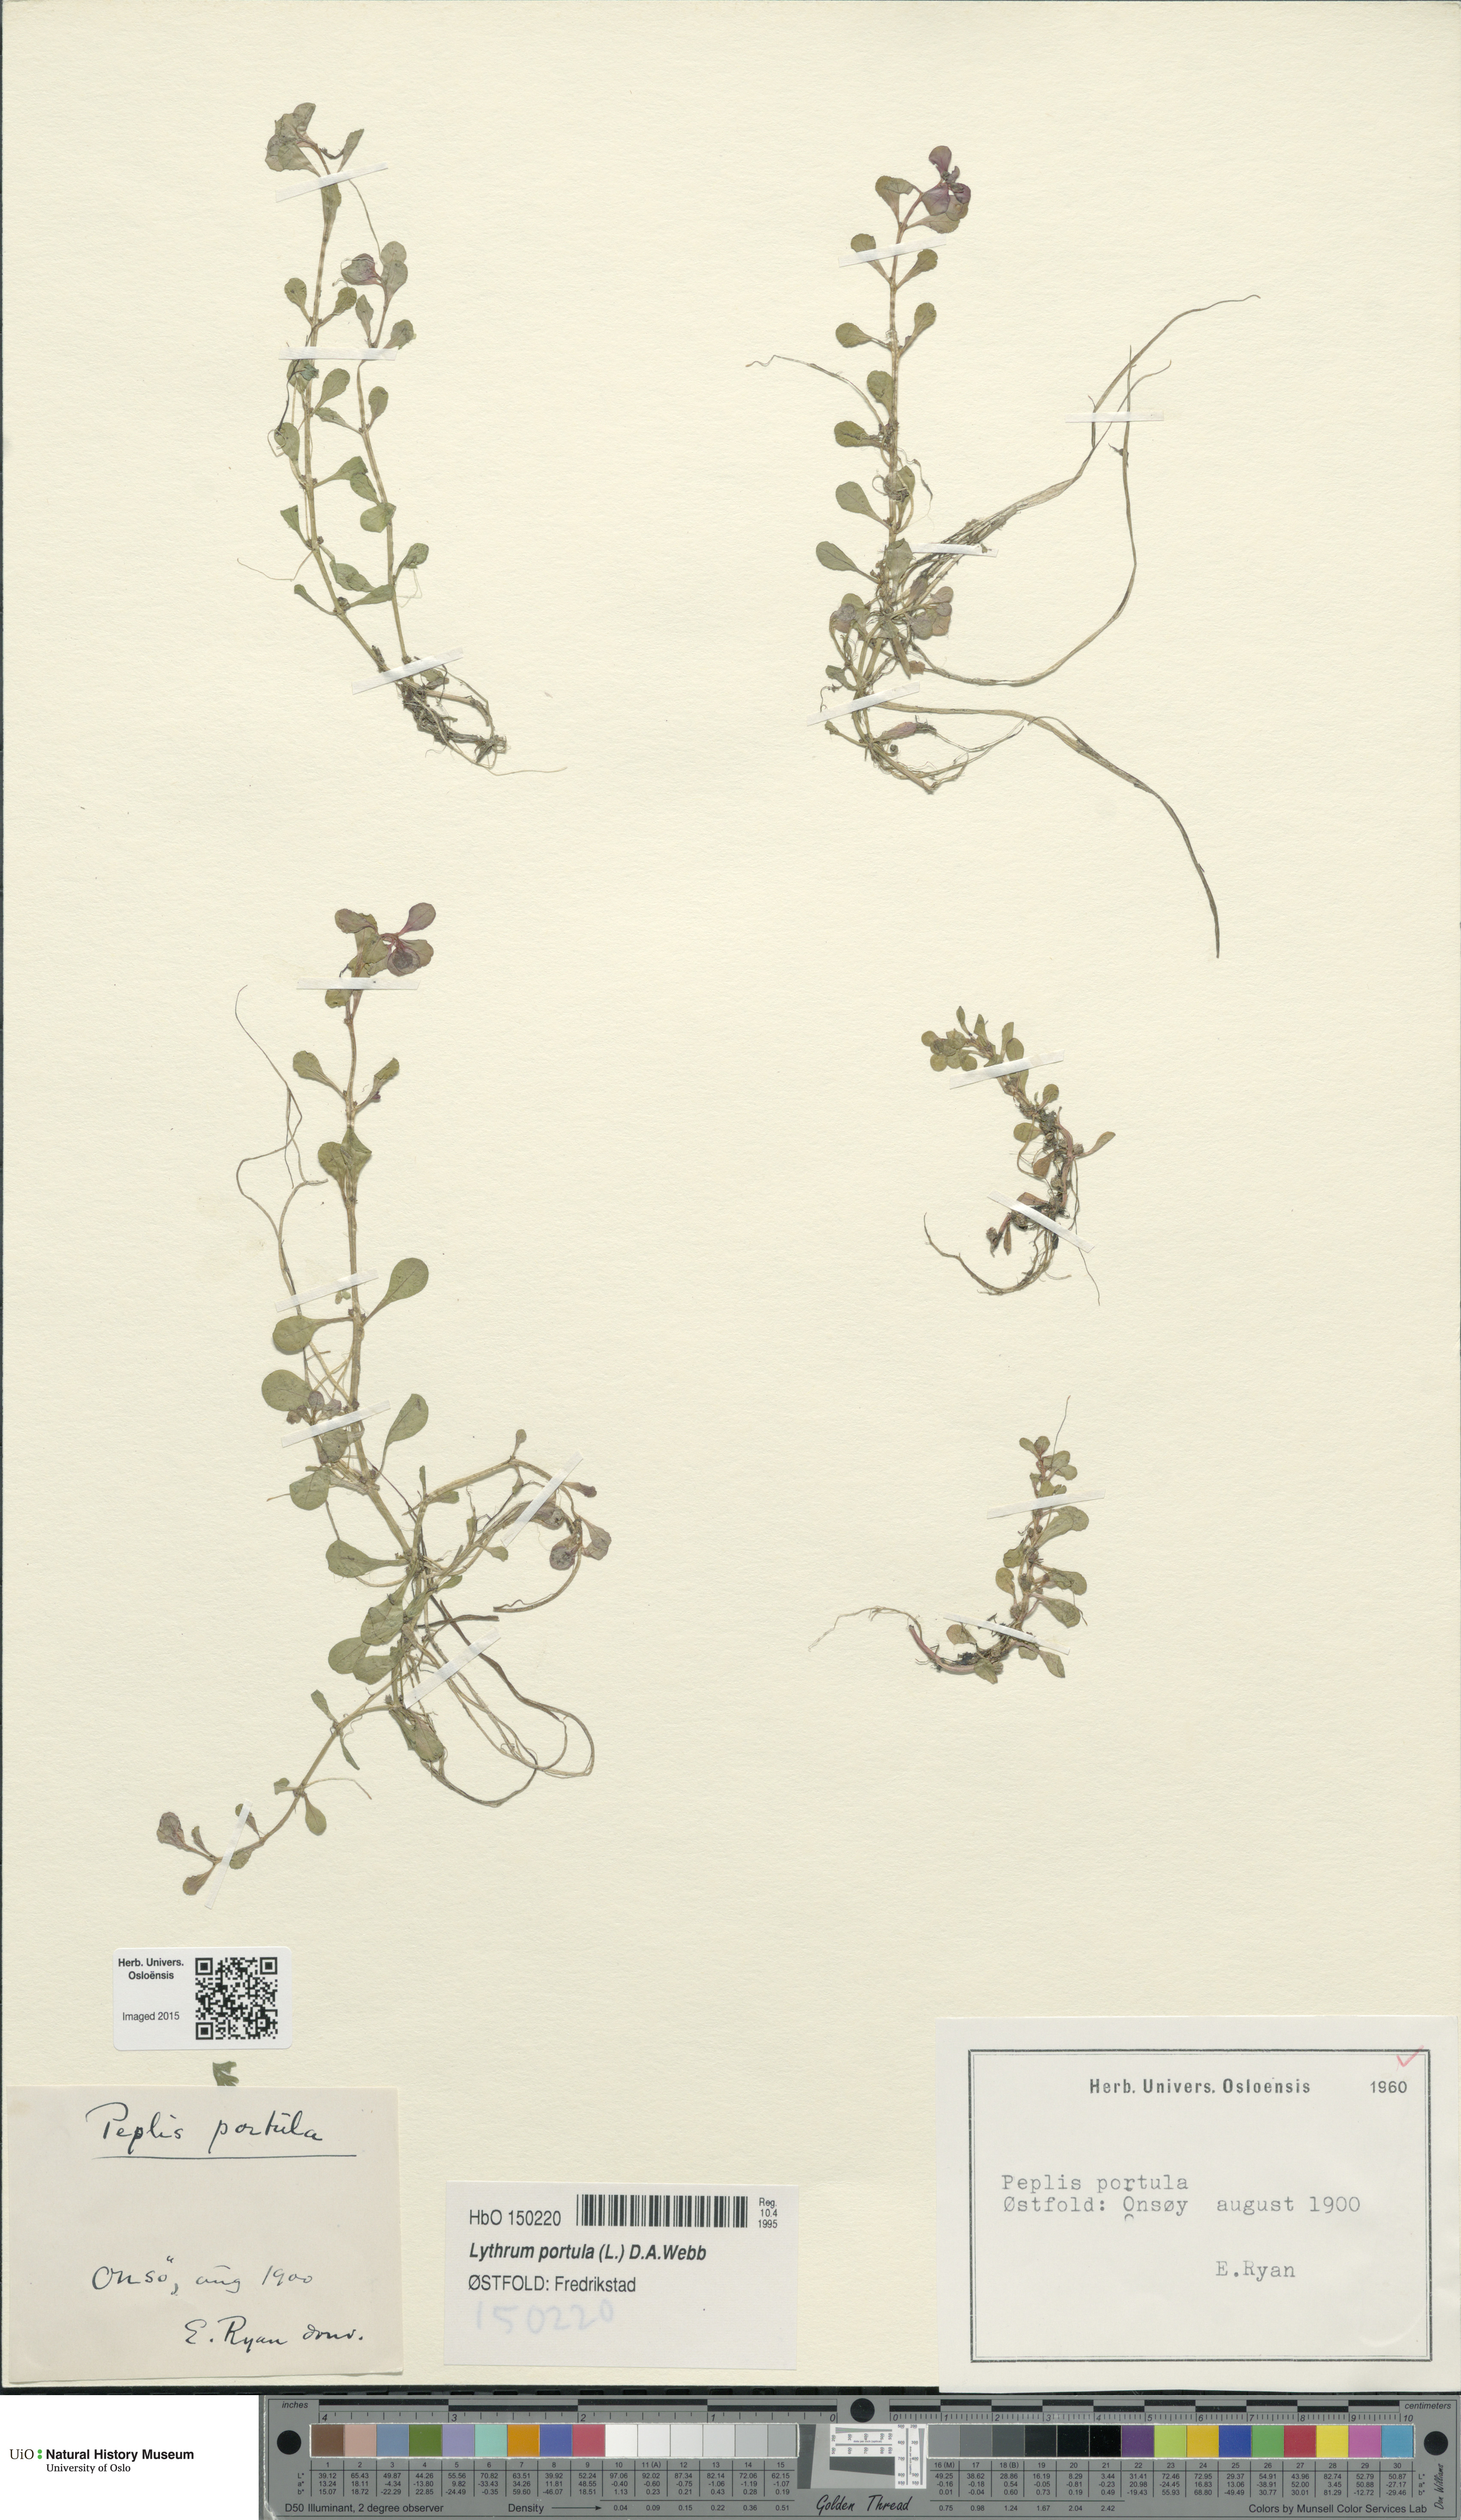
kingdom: Plantae
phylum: Tracheophyta
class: Magnoliopsida
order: Myrtales
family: Lythraceae
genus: Lythrum
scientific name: Lythrum portula
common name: Water purslane
